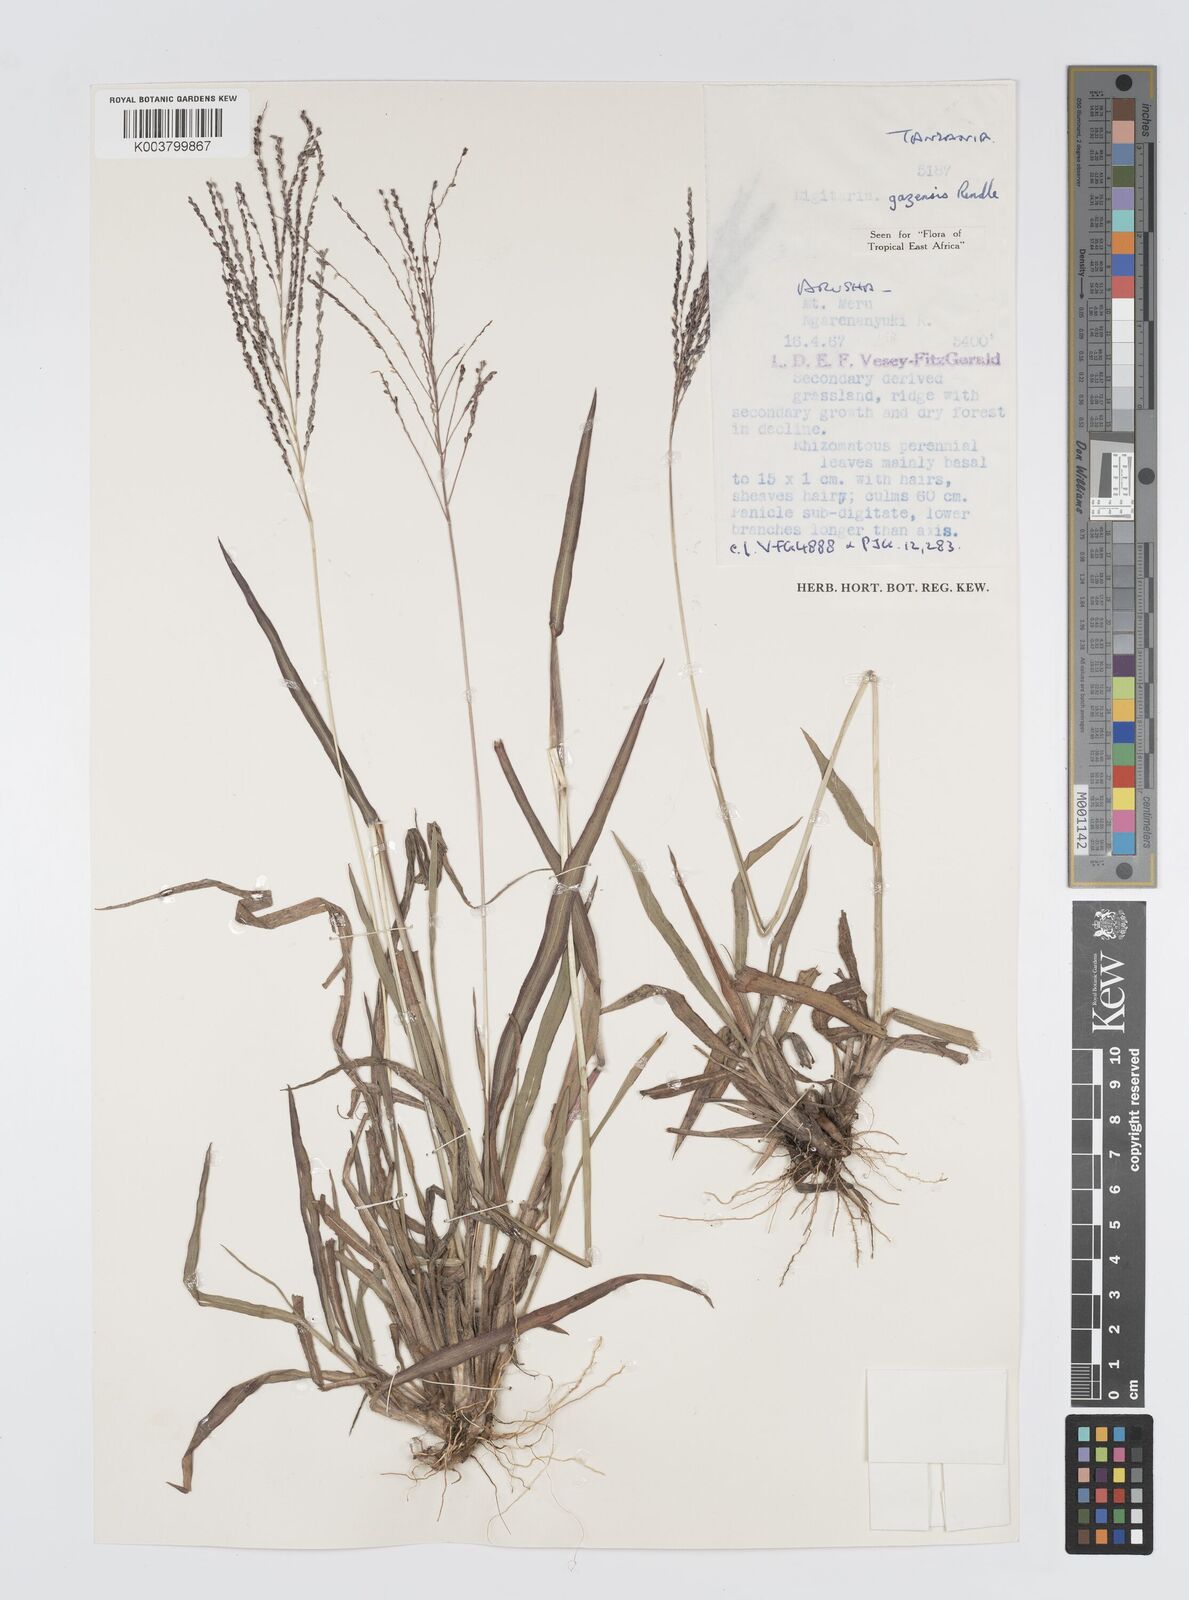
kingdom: Plantae
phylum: Tracheophyta
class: Liliopsida
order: Poales
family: Poaceae
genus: Digitaria
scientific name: Digitaria gazensis
